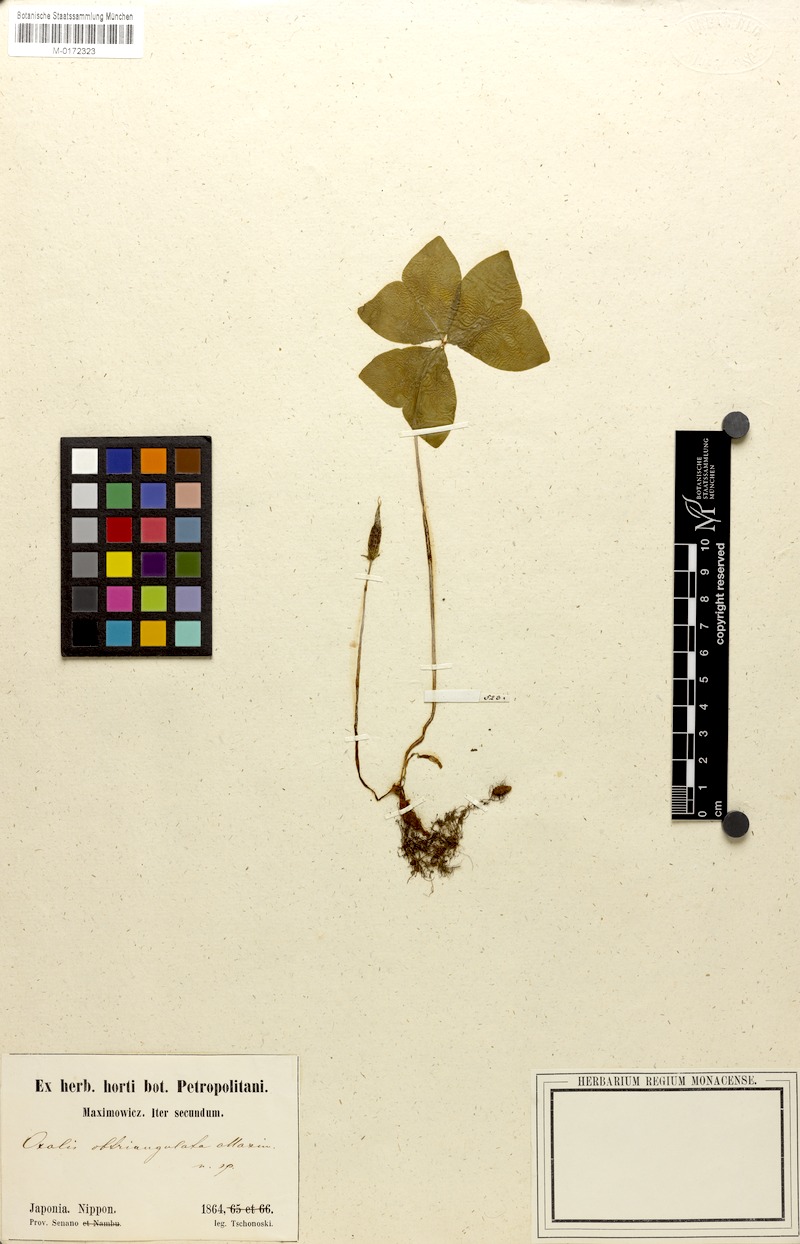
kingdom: Plantae
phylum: Tracheophyta
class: Magnoliopsida
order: Oxalidales
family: Oxalidaceae
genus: Oxalis
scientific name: Oxalis obtriangulata
